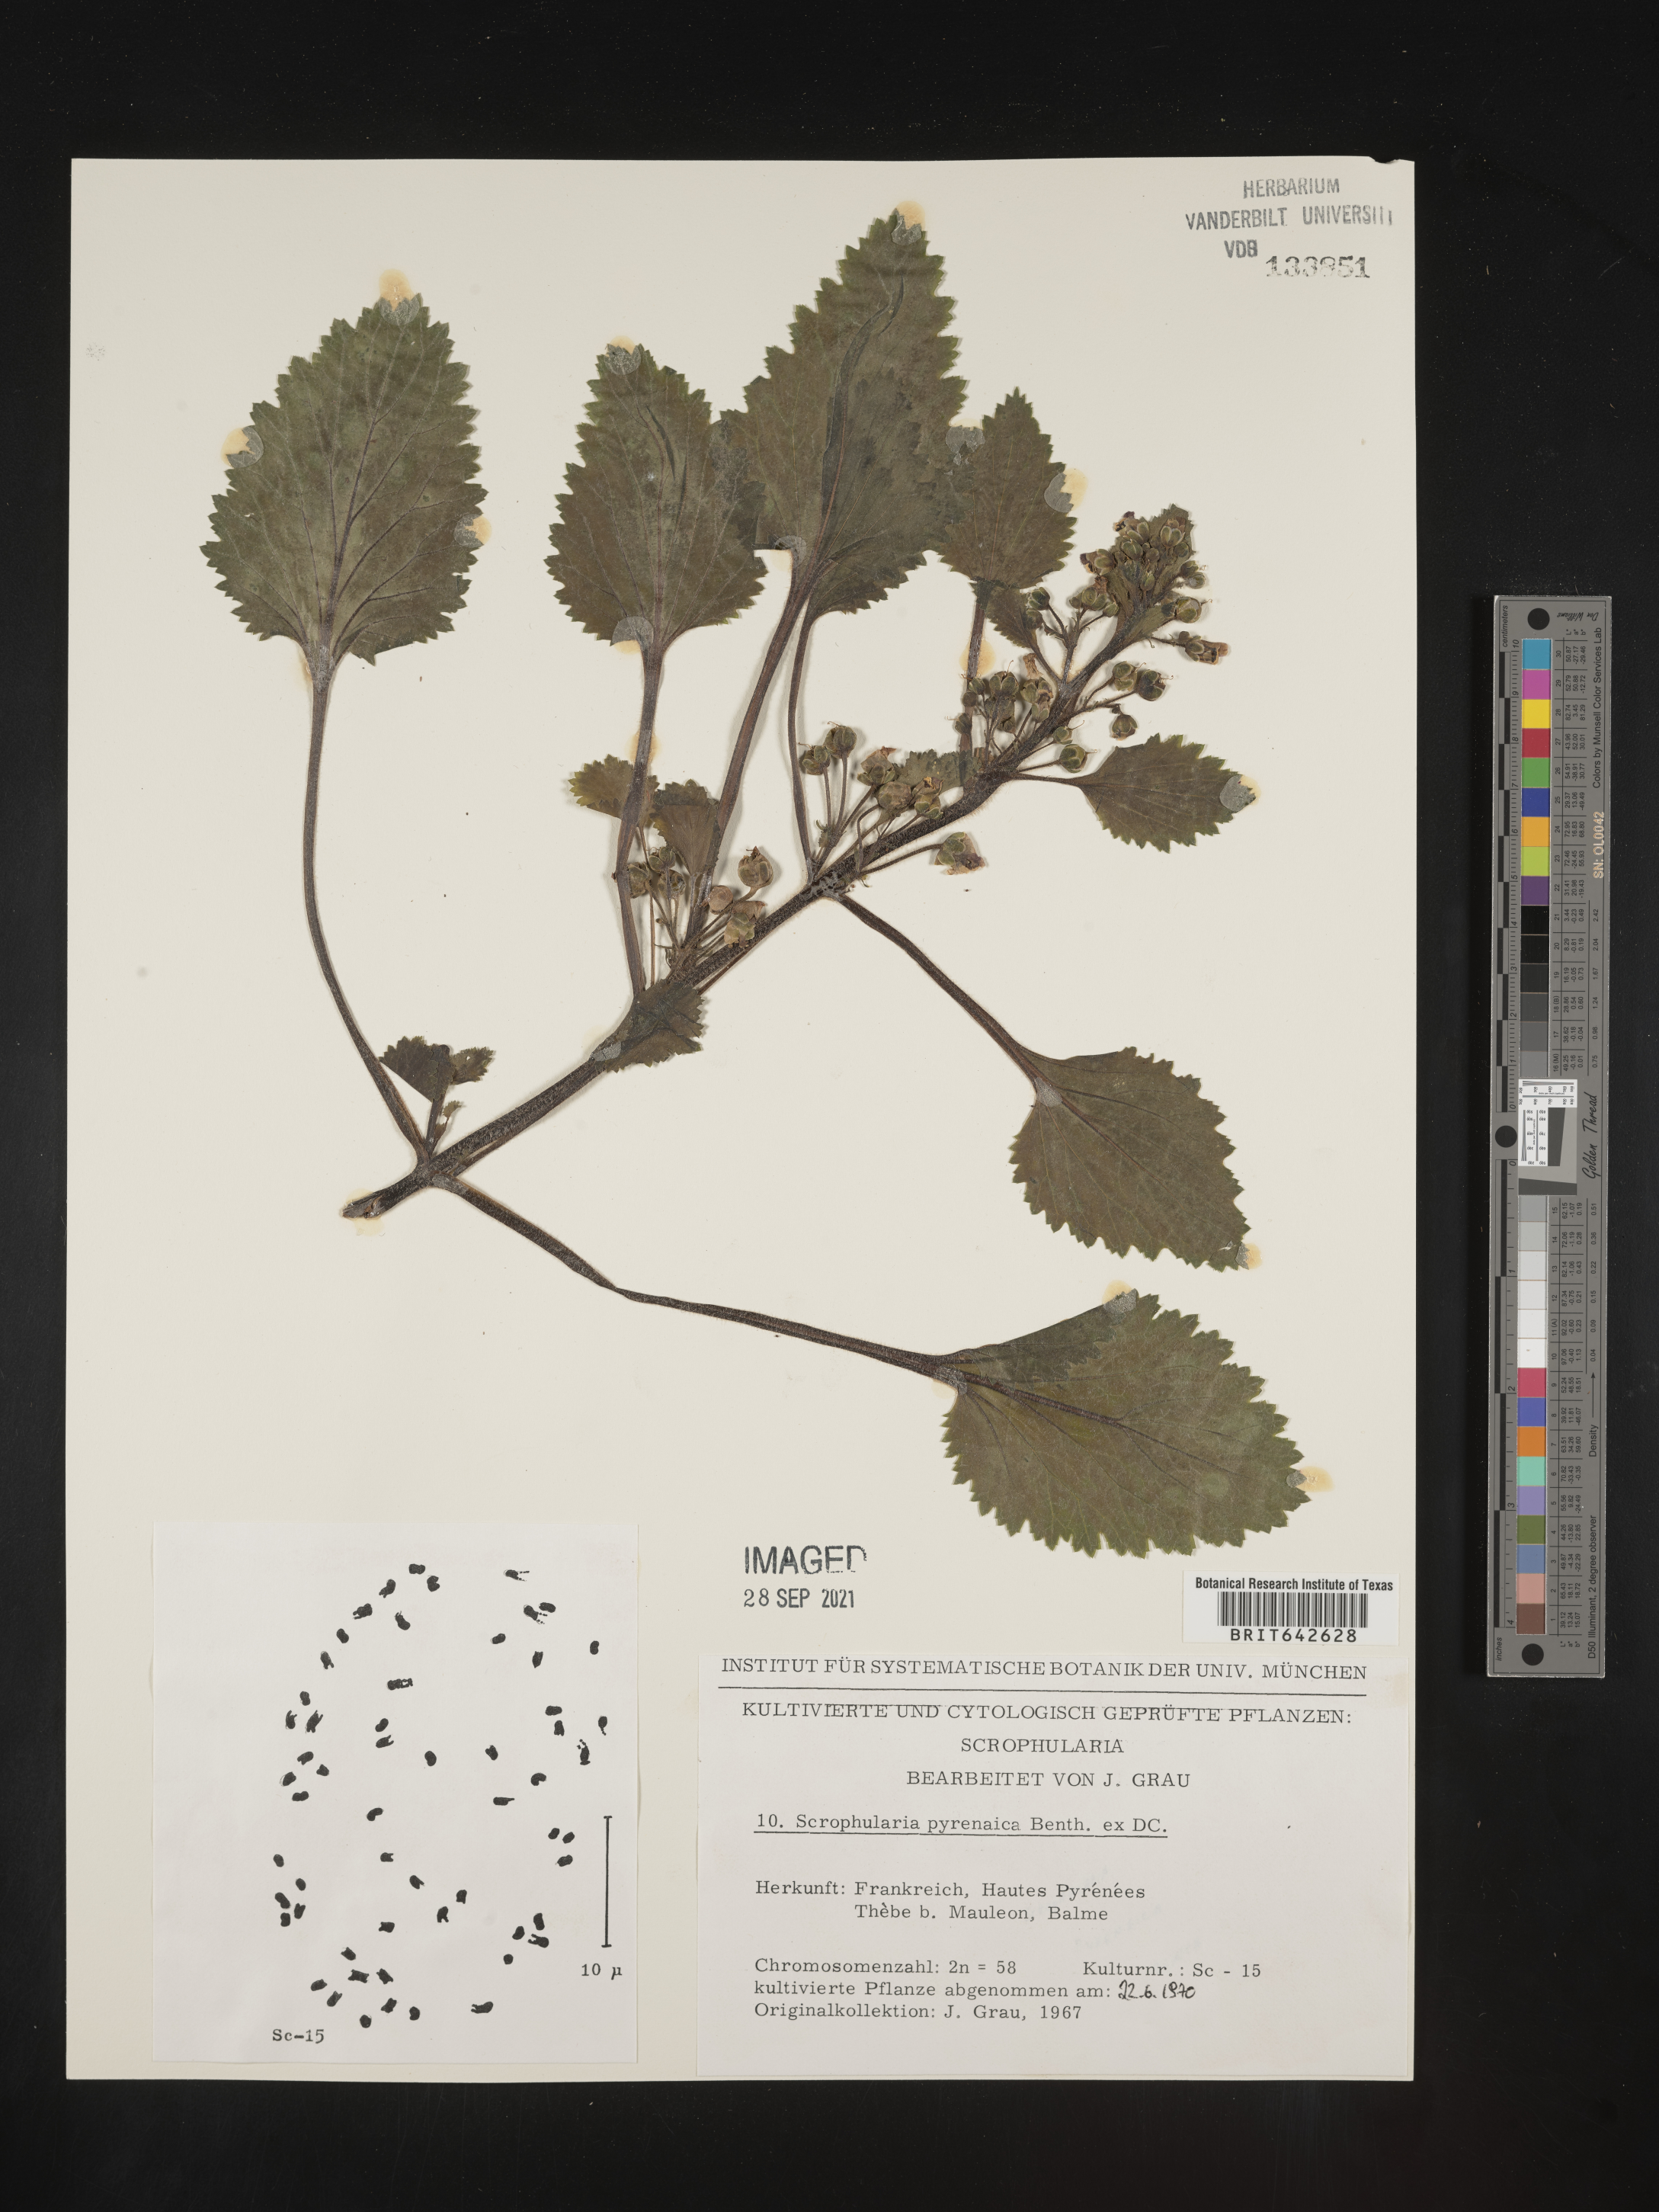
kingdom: Plantae
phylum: Tracheophyta
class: Magnoliopsida
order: Lamiales
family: Scrophulariaceae
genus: Scrophularia
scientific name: Scrophularia
